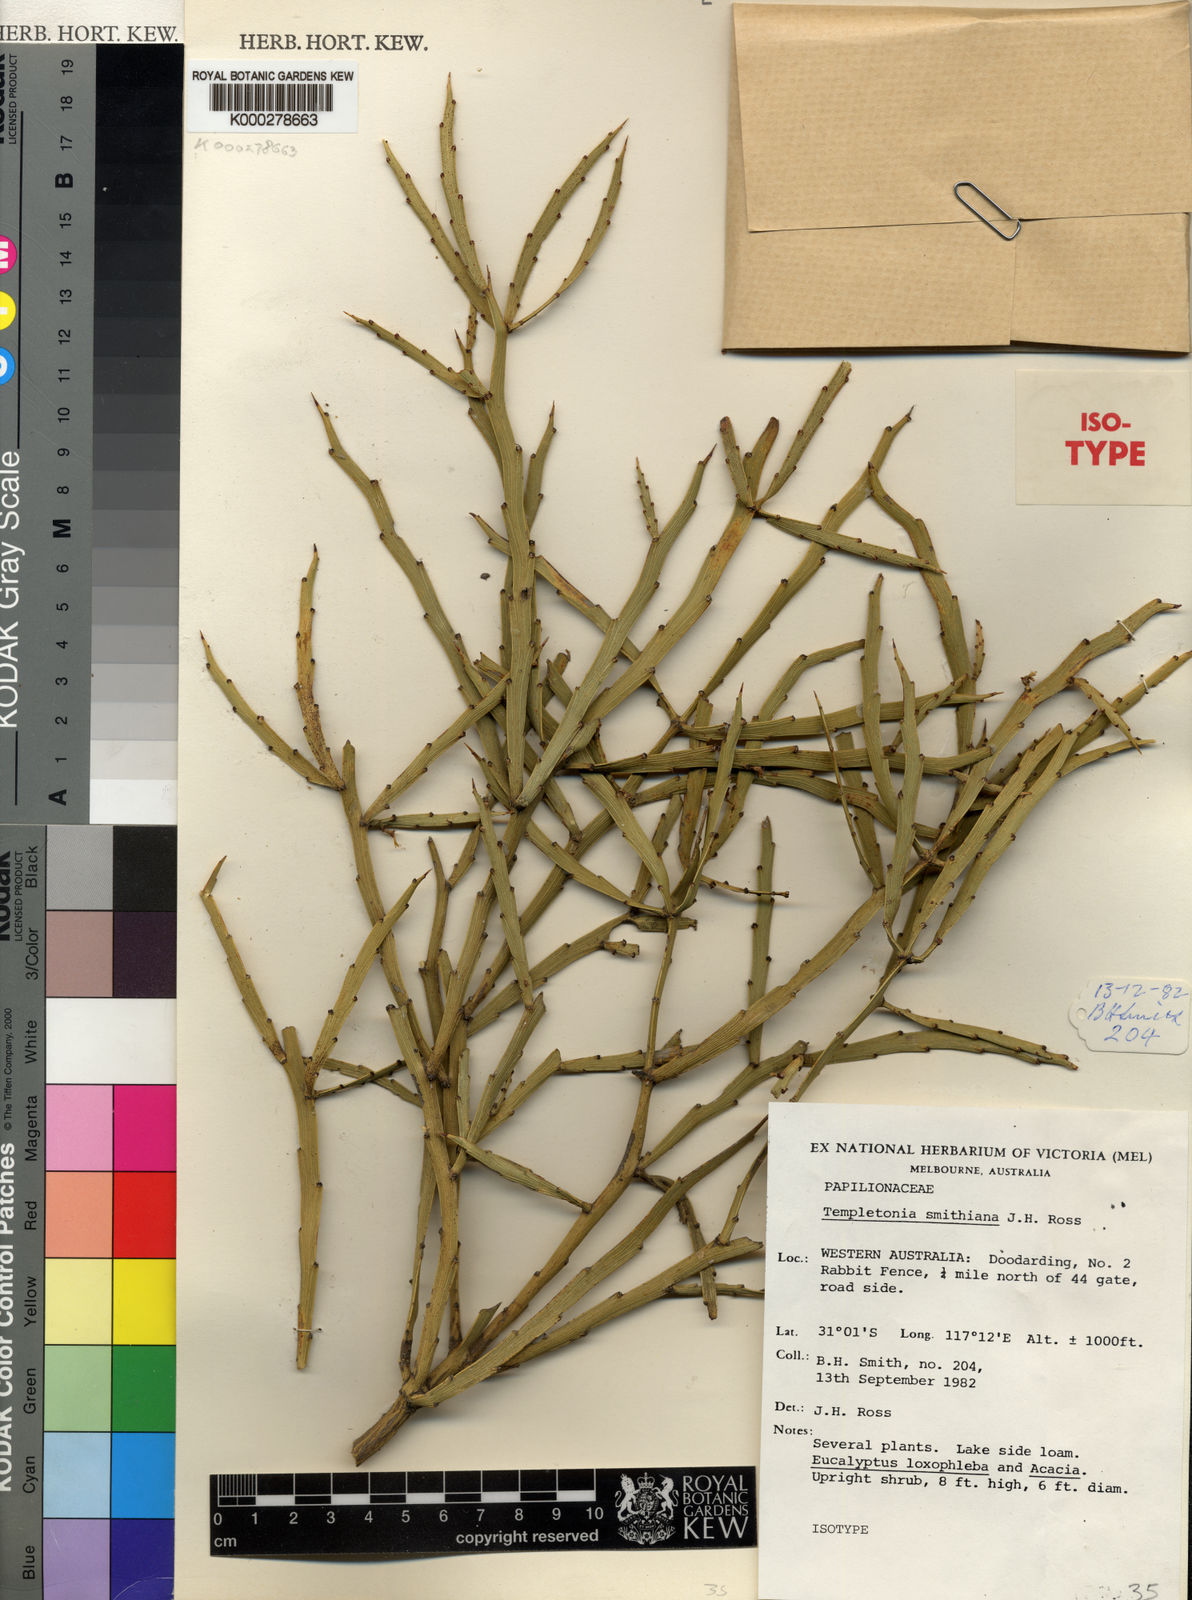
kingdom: Plantae
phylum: Tracheophyta
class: Magnoliopsida
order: Fabales
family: Fabaceae
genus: Templetonia
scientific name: Templetonia smithiana
